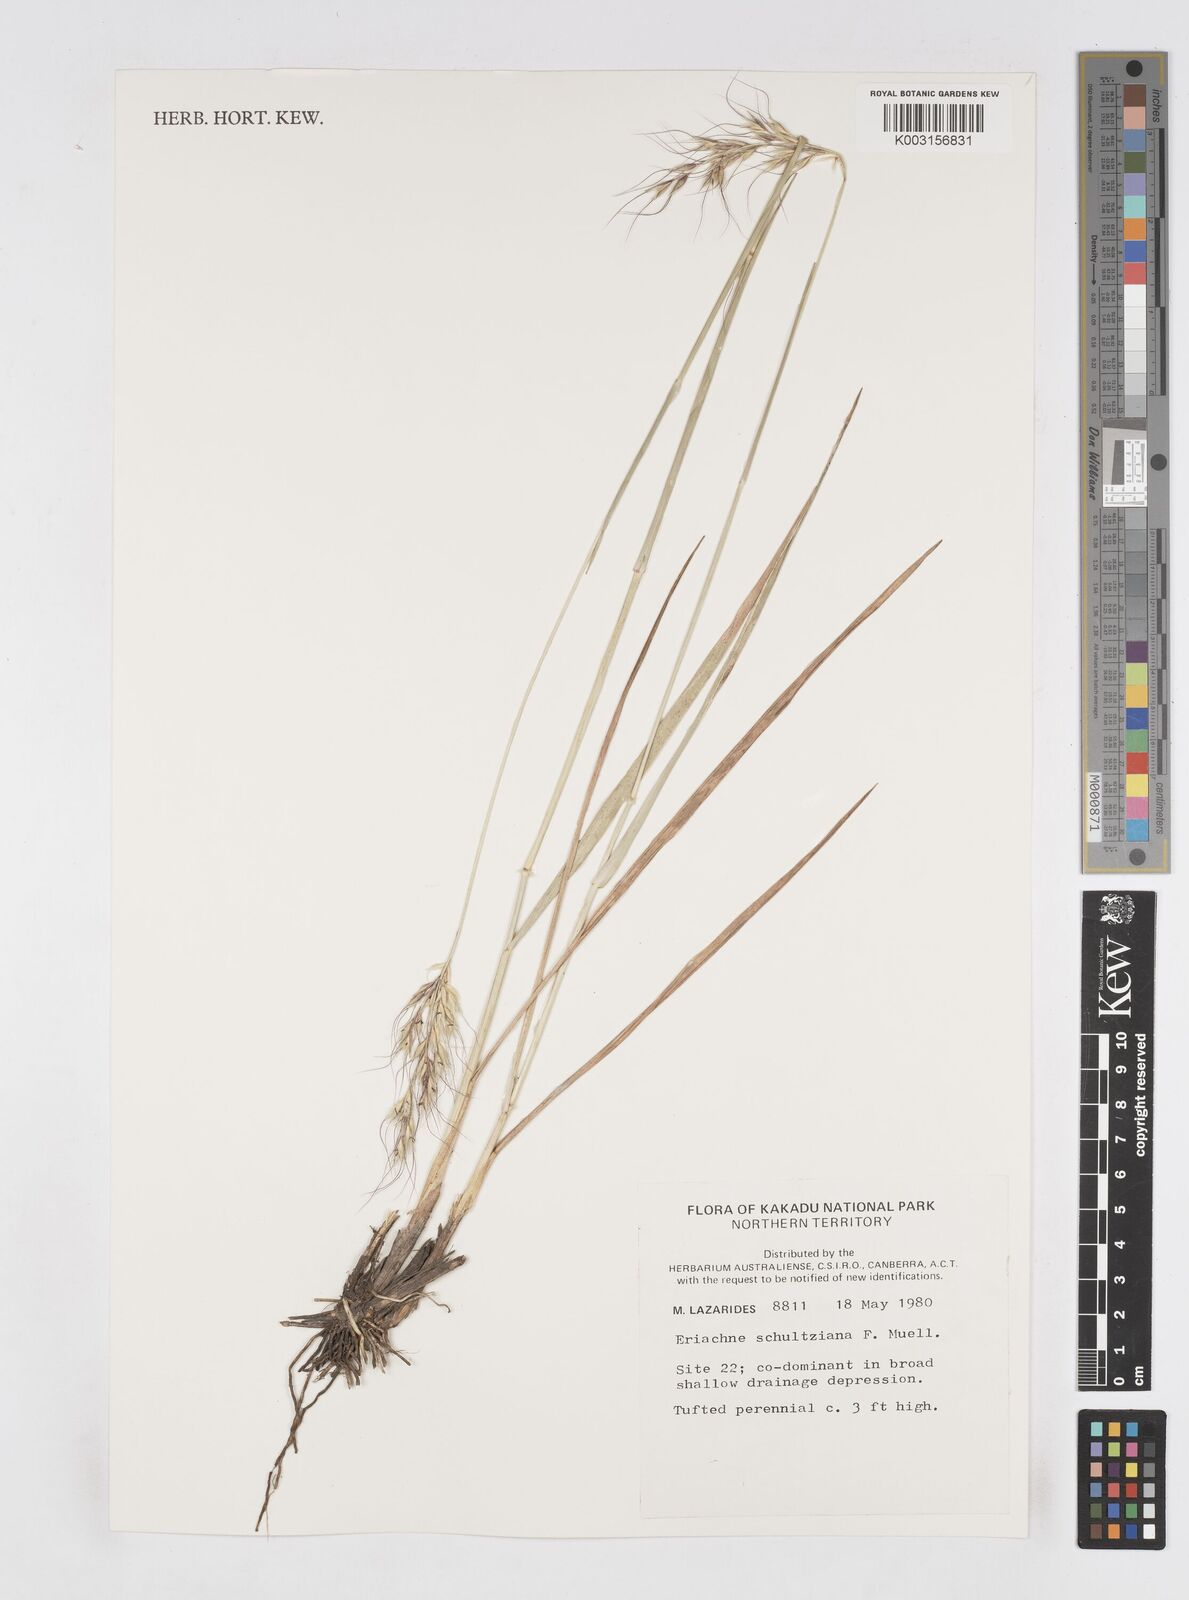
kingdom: Plantae
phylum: Tracheophyta
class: Liliopsida
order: Poales
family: Poaceae
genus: Eriachne
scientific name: Eriachne schultziana
